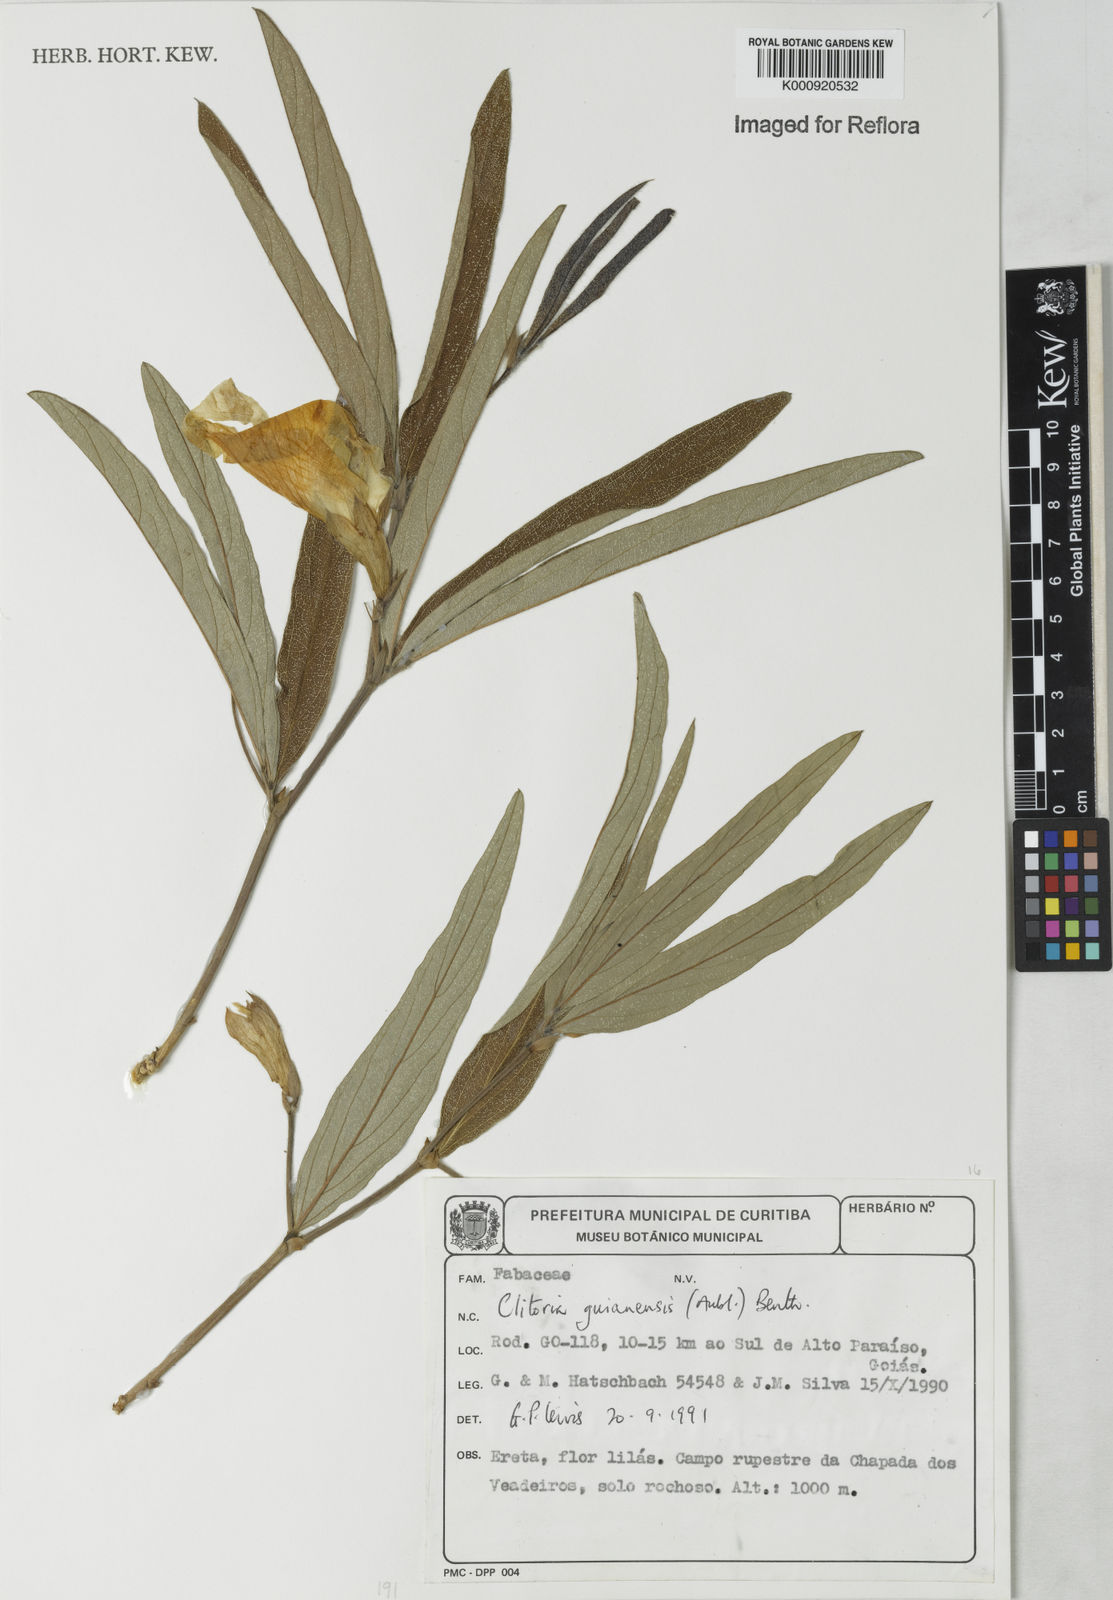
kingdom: Plantae
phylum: Tracheophyta
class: Magnoliopsida
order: Fabales
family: Fabaceae
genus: Clitoria
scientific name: Clitoria guianensis
